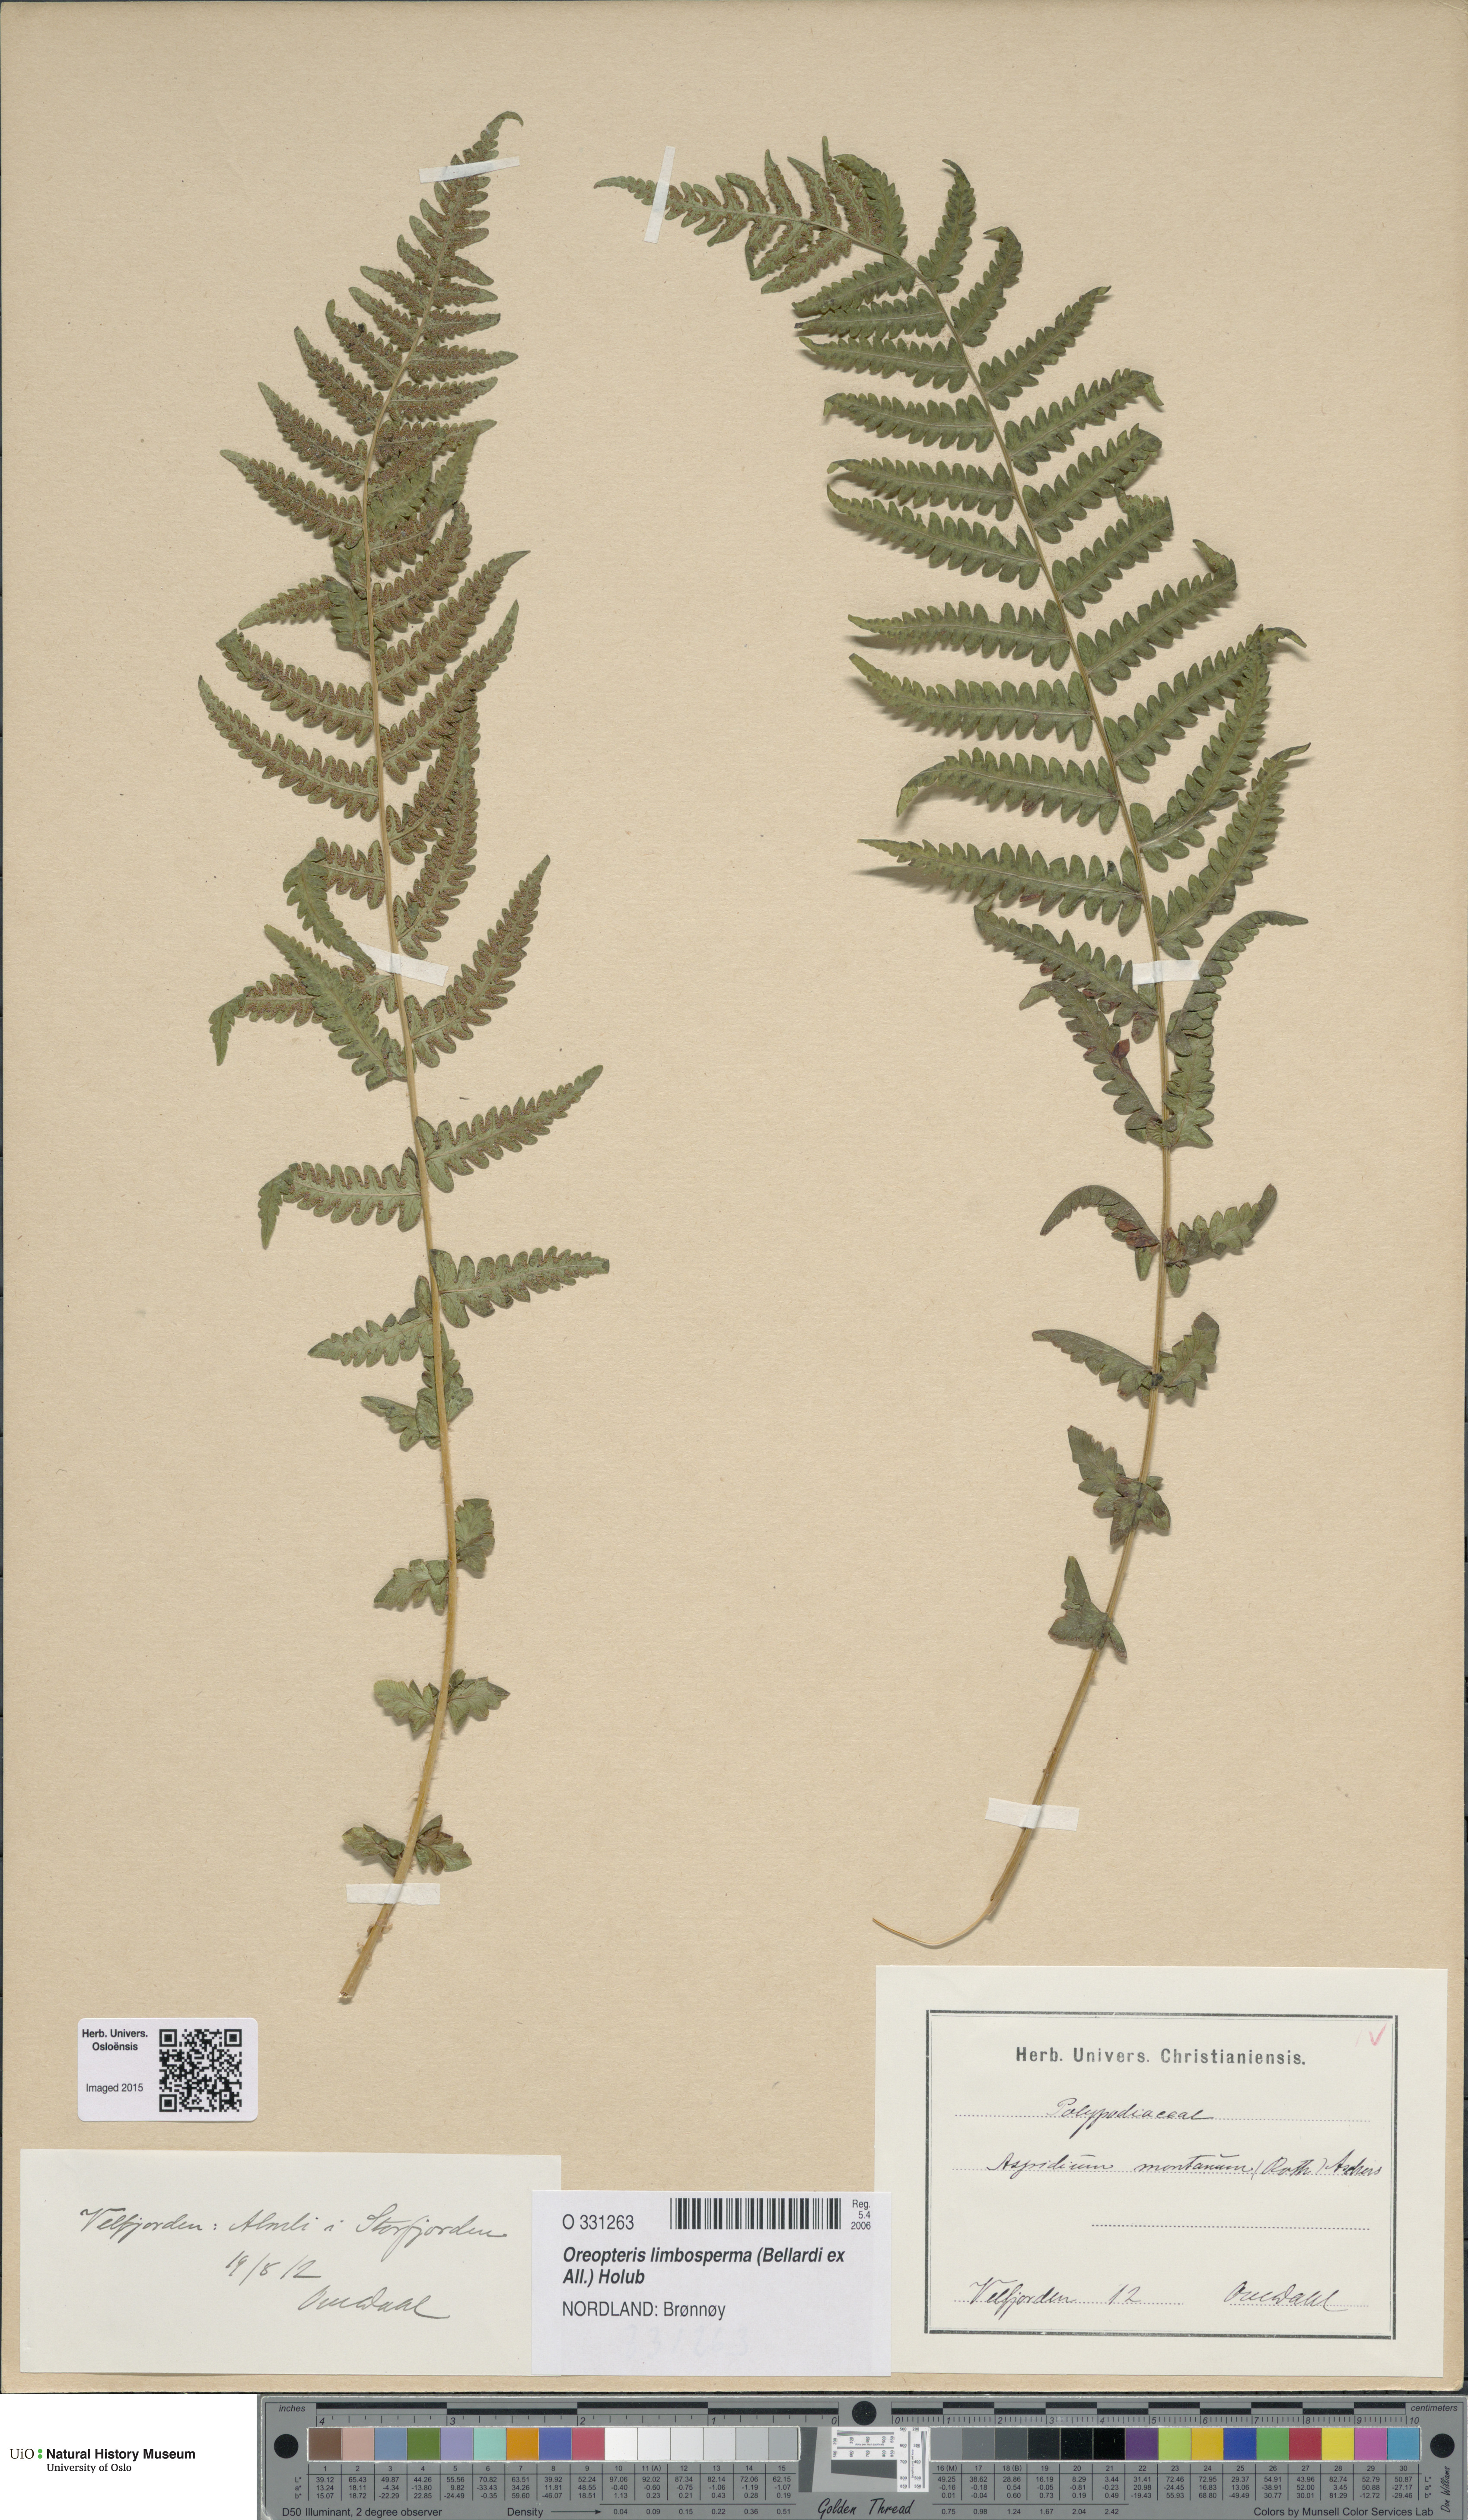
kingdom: Plantae
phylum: Tracheophyta
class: Polypodiopsida
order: Polypodiales
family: Thelypteridaceae
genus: Oreopteris
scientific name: Oreopteris limbosperma
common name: Lemon-scented fern
